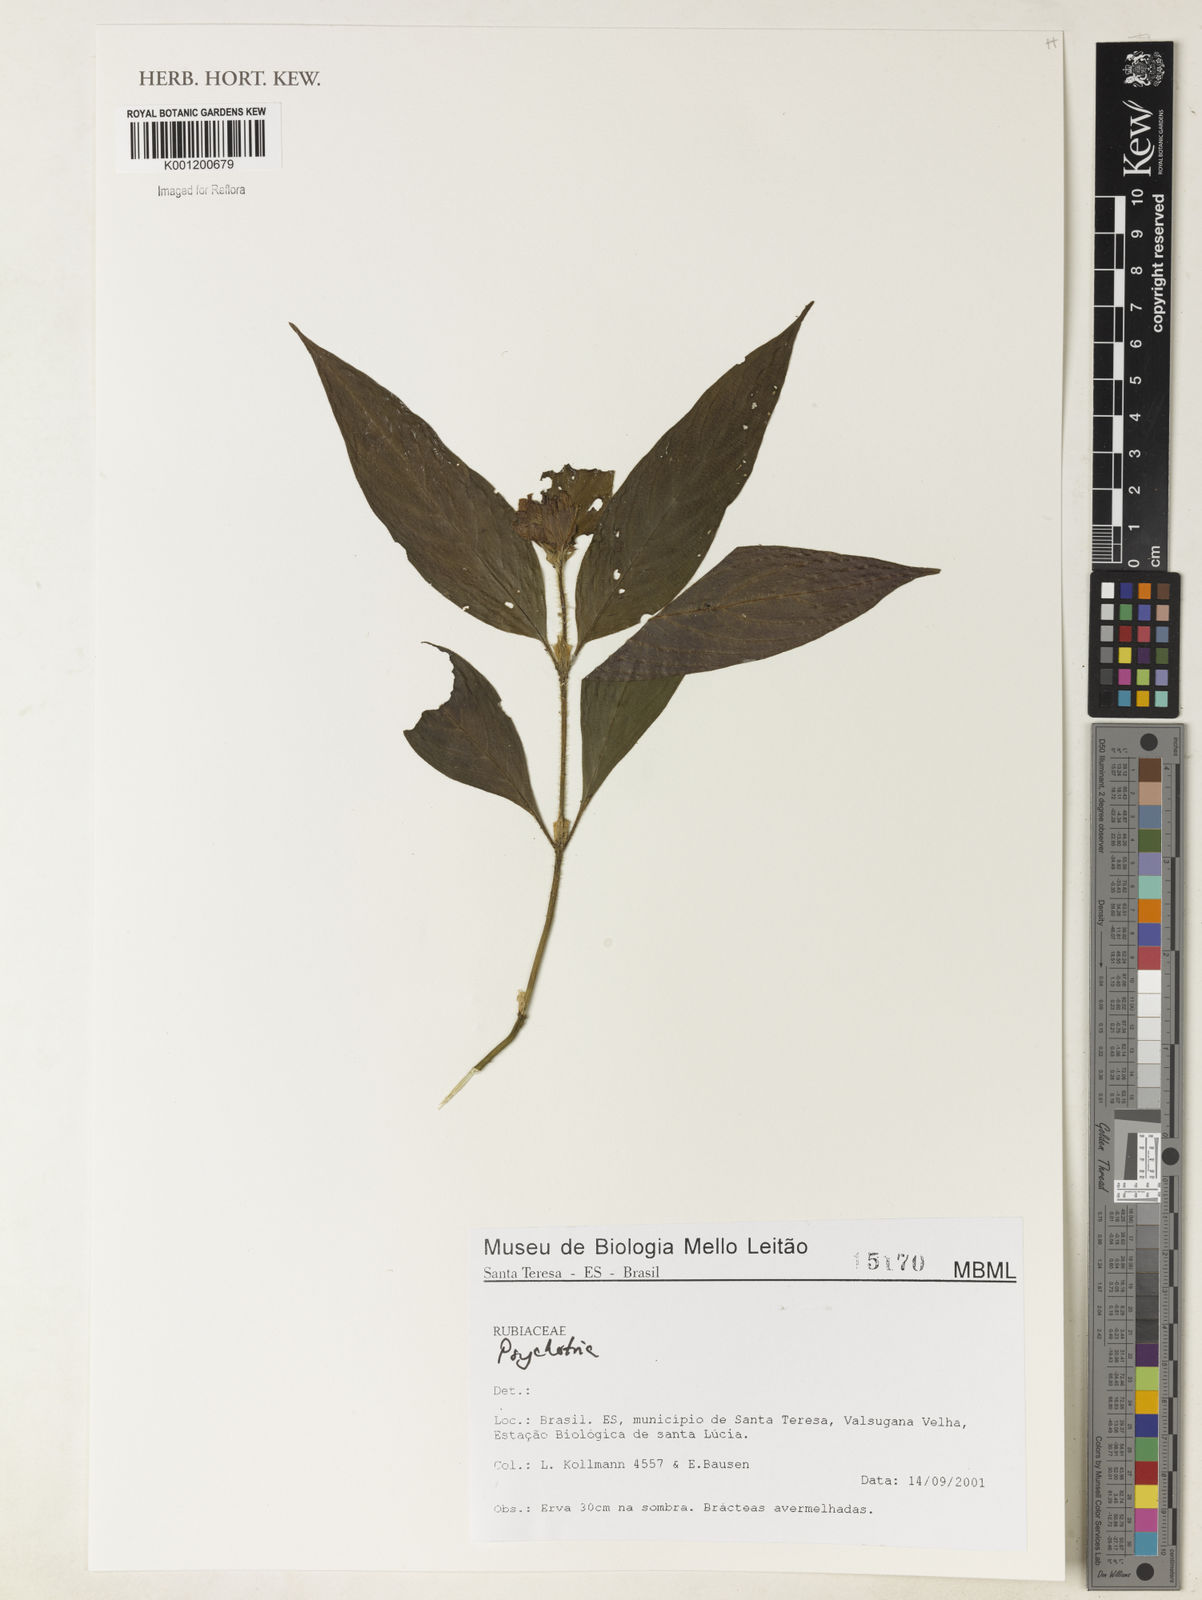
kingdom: Plantae
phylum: Tracheophyta
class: Magnoliopsida
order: Gentianales
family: Rubiaceae
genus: Psychotria
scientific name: Psychotria
